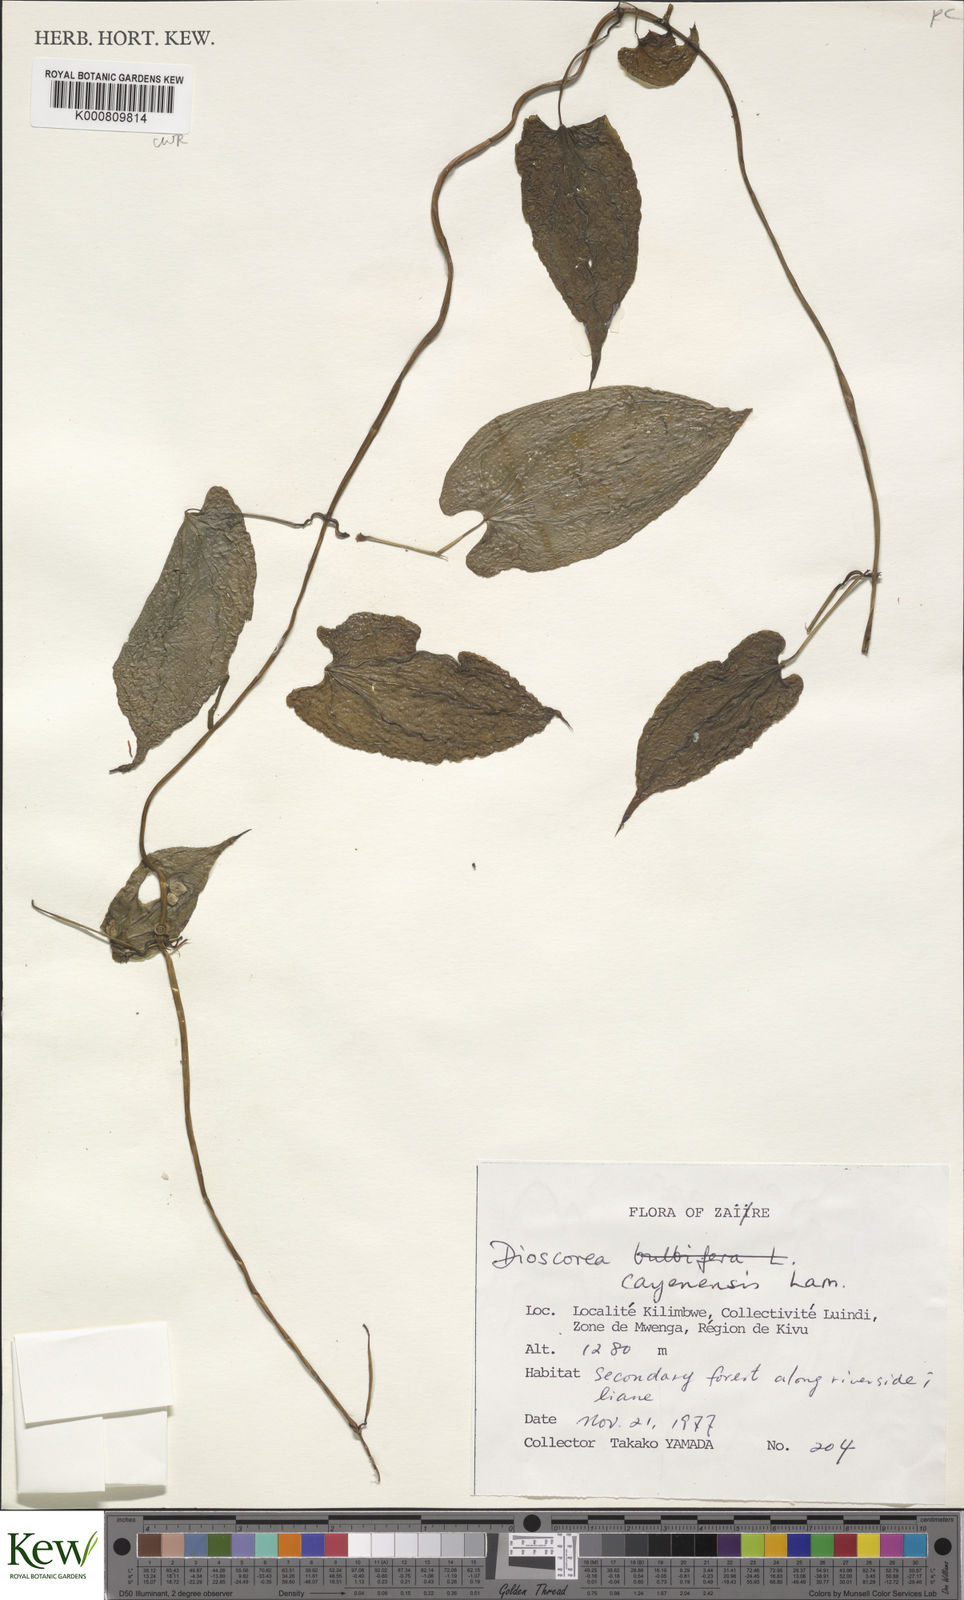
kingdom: Plantae
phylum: Tracheophyta
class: Liliopsida
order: Dioscoreales
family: Dioscoreaceae
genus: Dioscorea
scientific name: Dioscorea cayenensis
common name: Attoto yam
